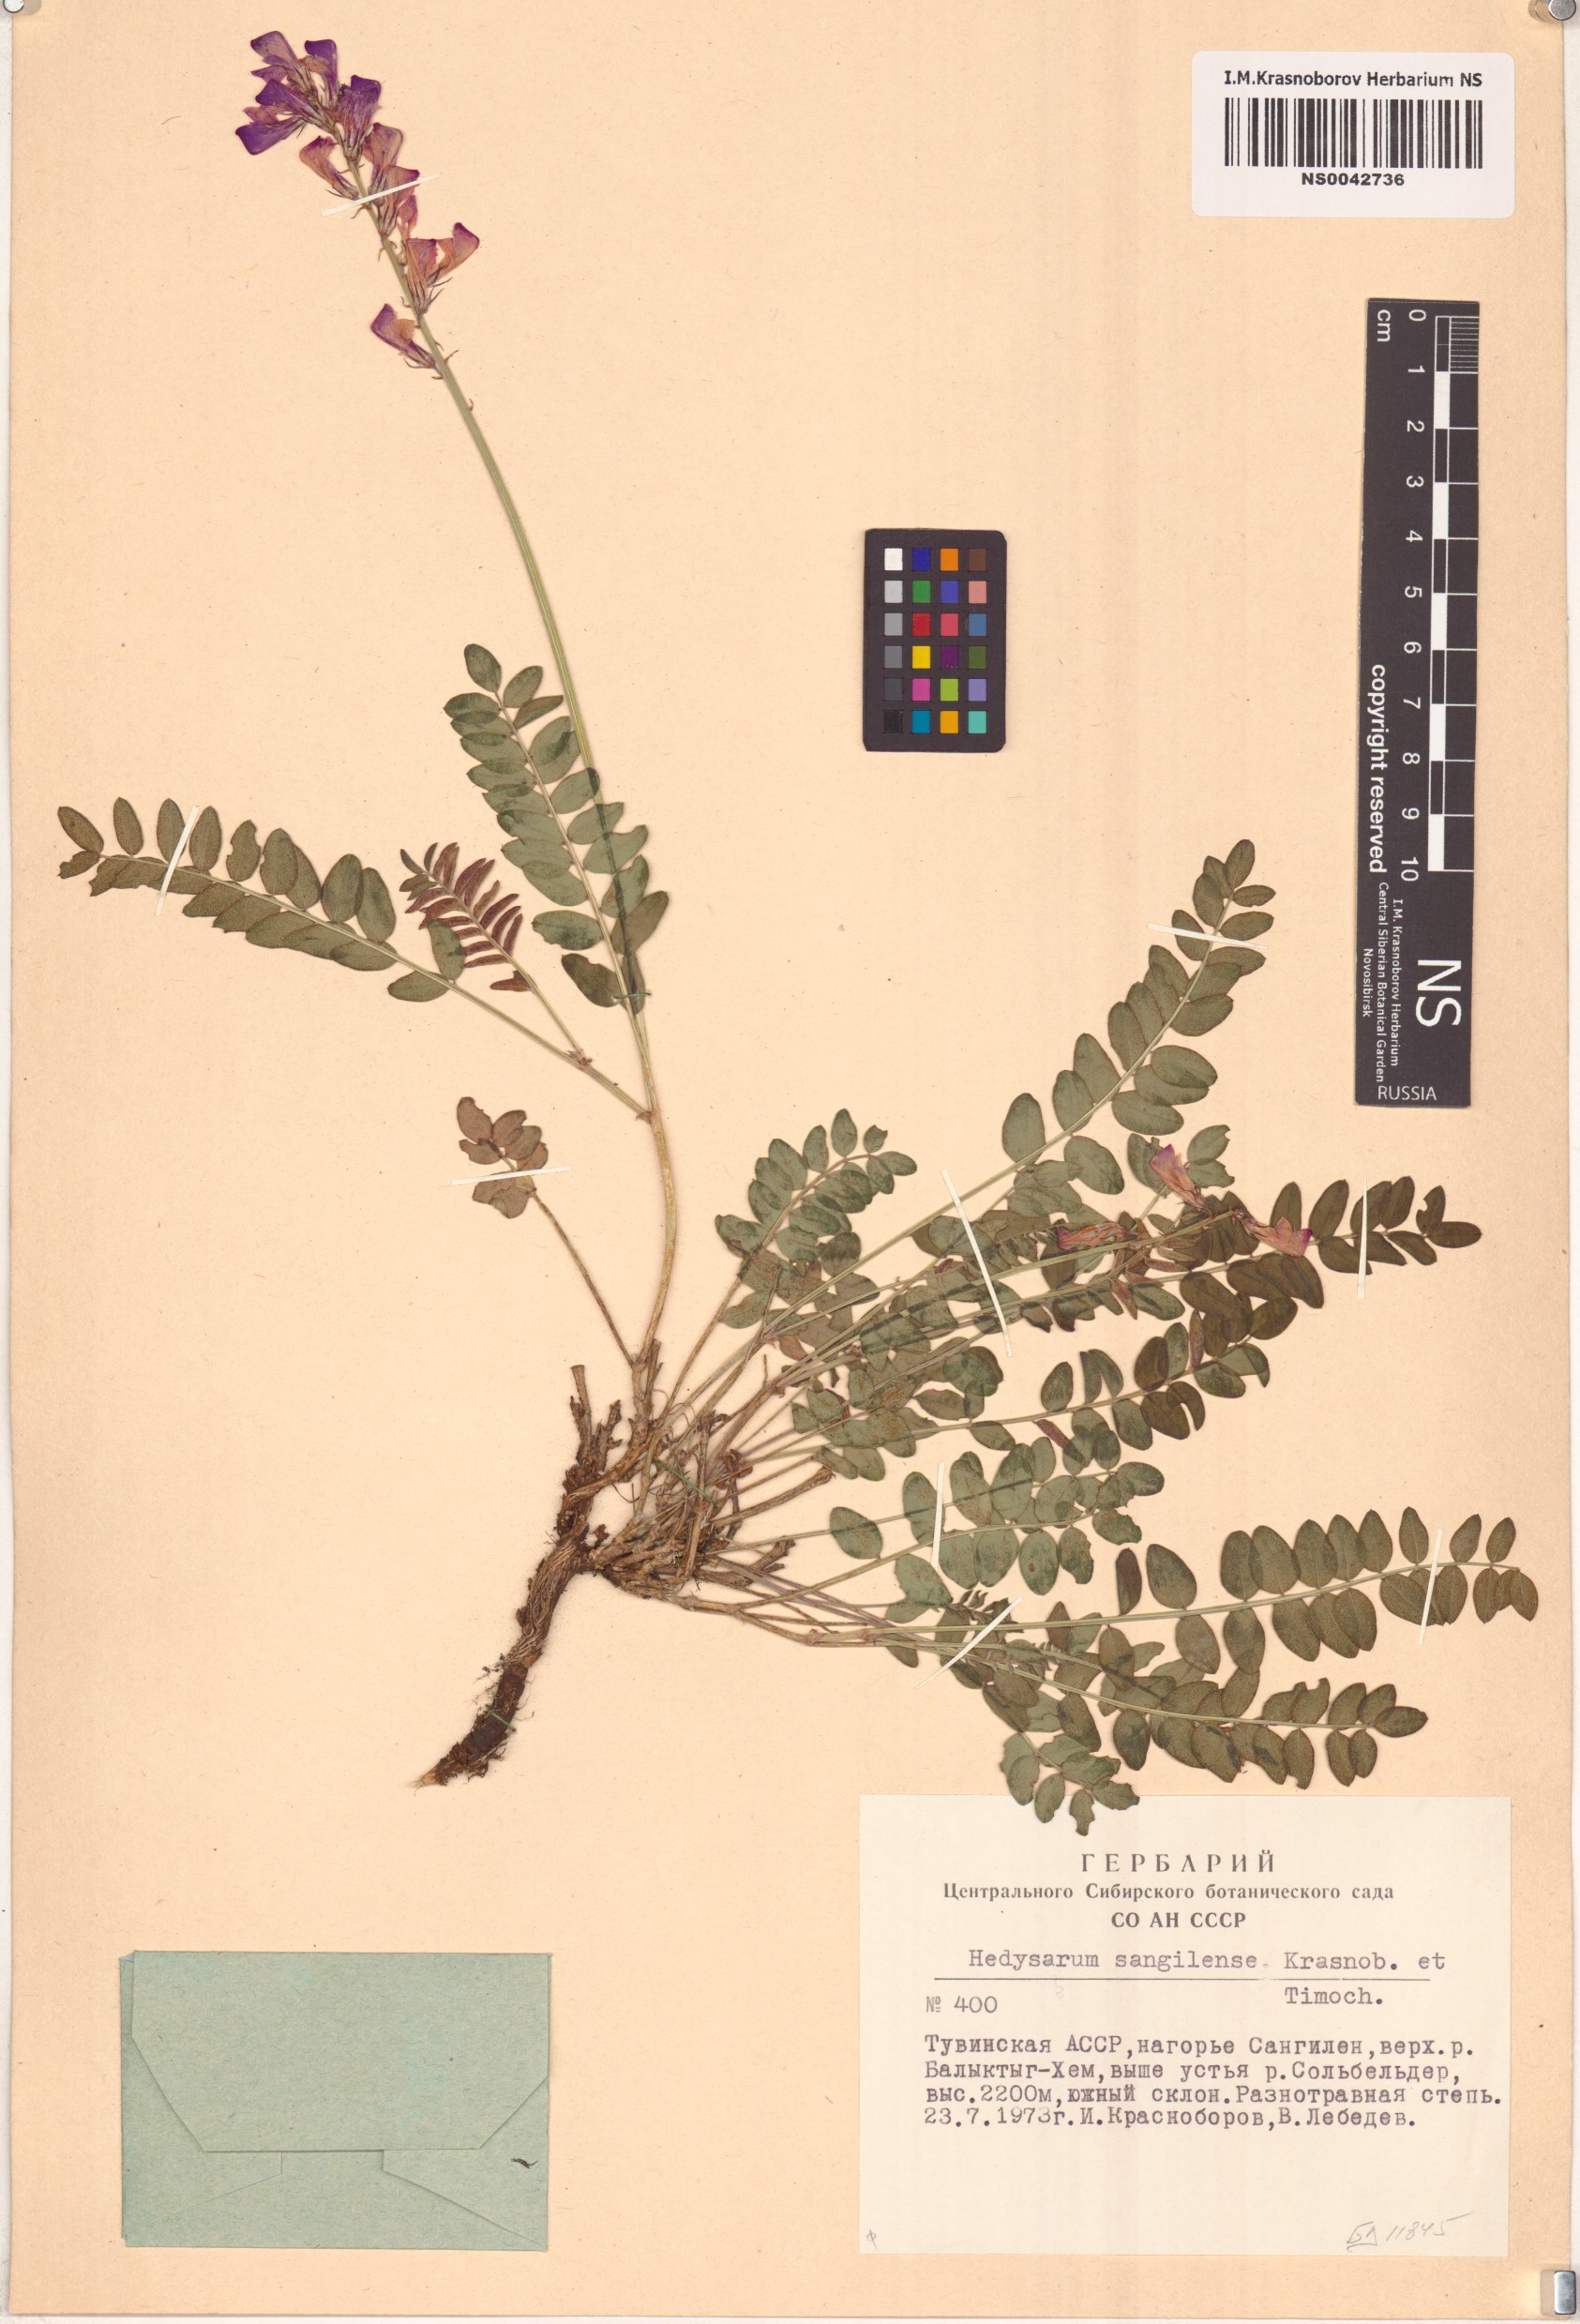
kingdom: Plantae
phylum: Tracheophyta
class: Magnoliopsida
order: Fabales
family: Fabaceae
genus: Hedysarum
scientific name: Hedysarum sangilense
